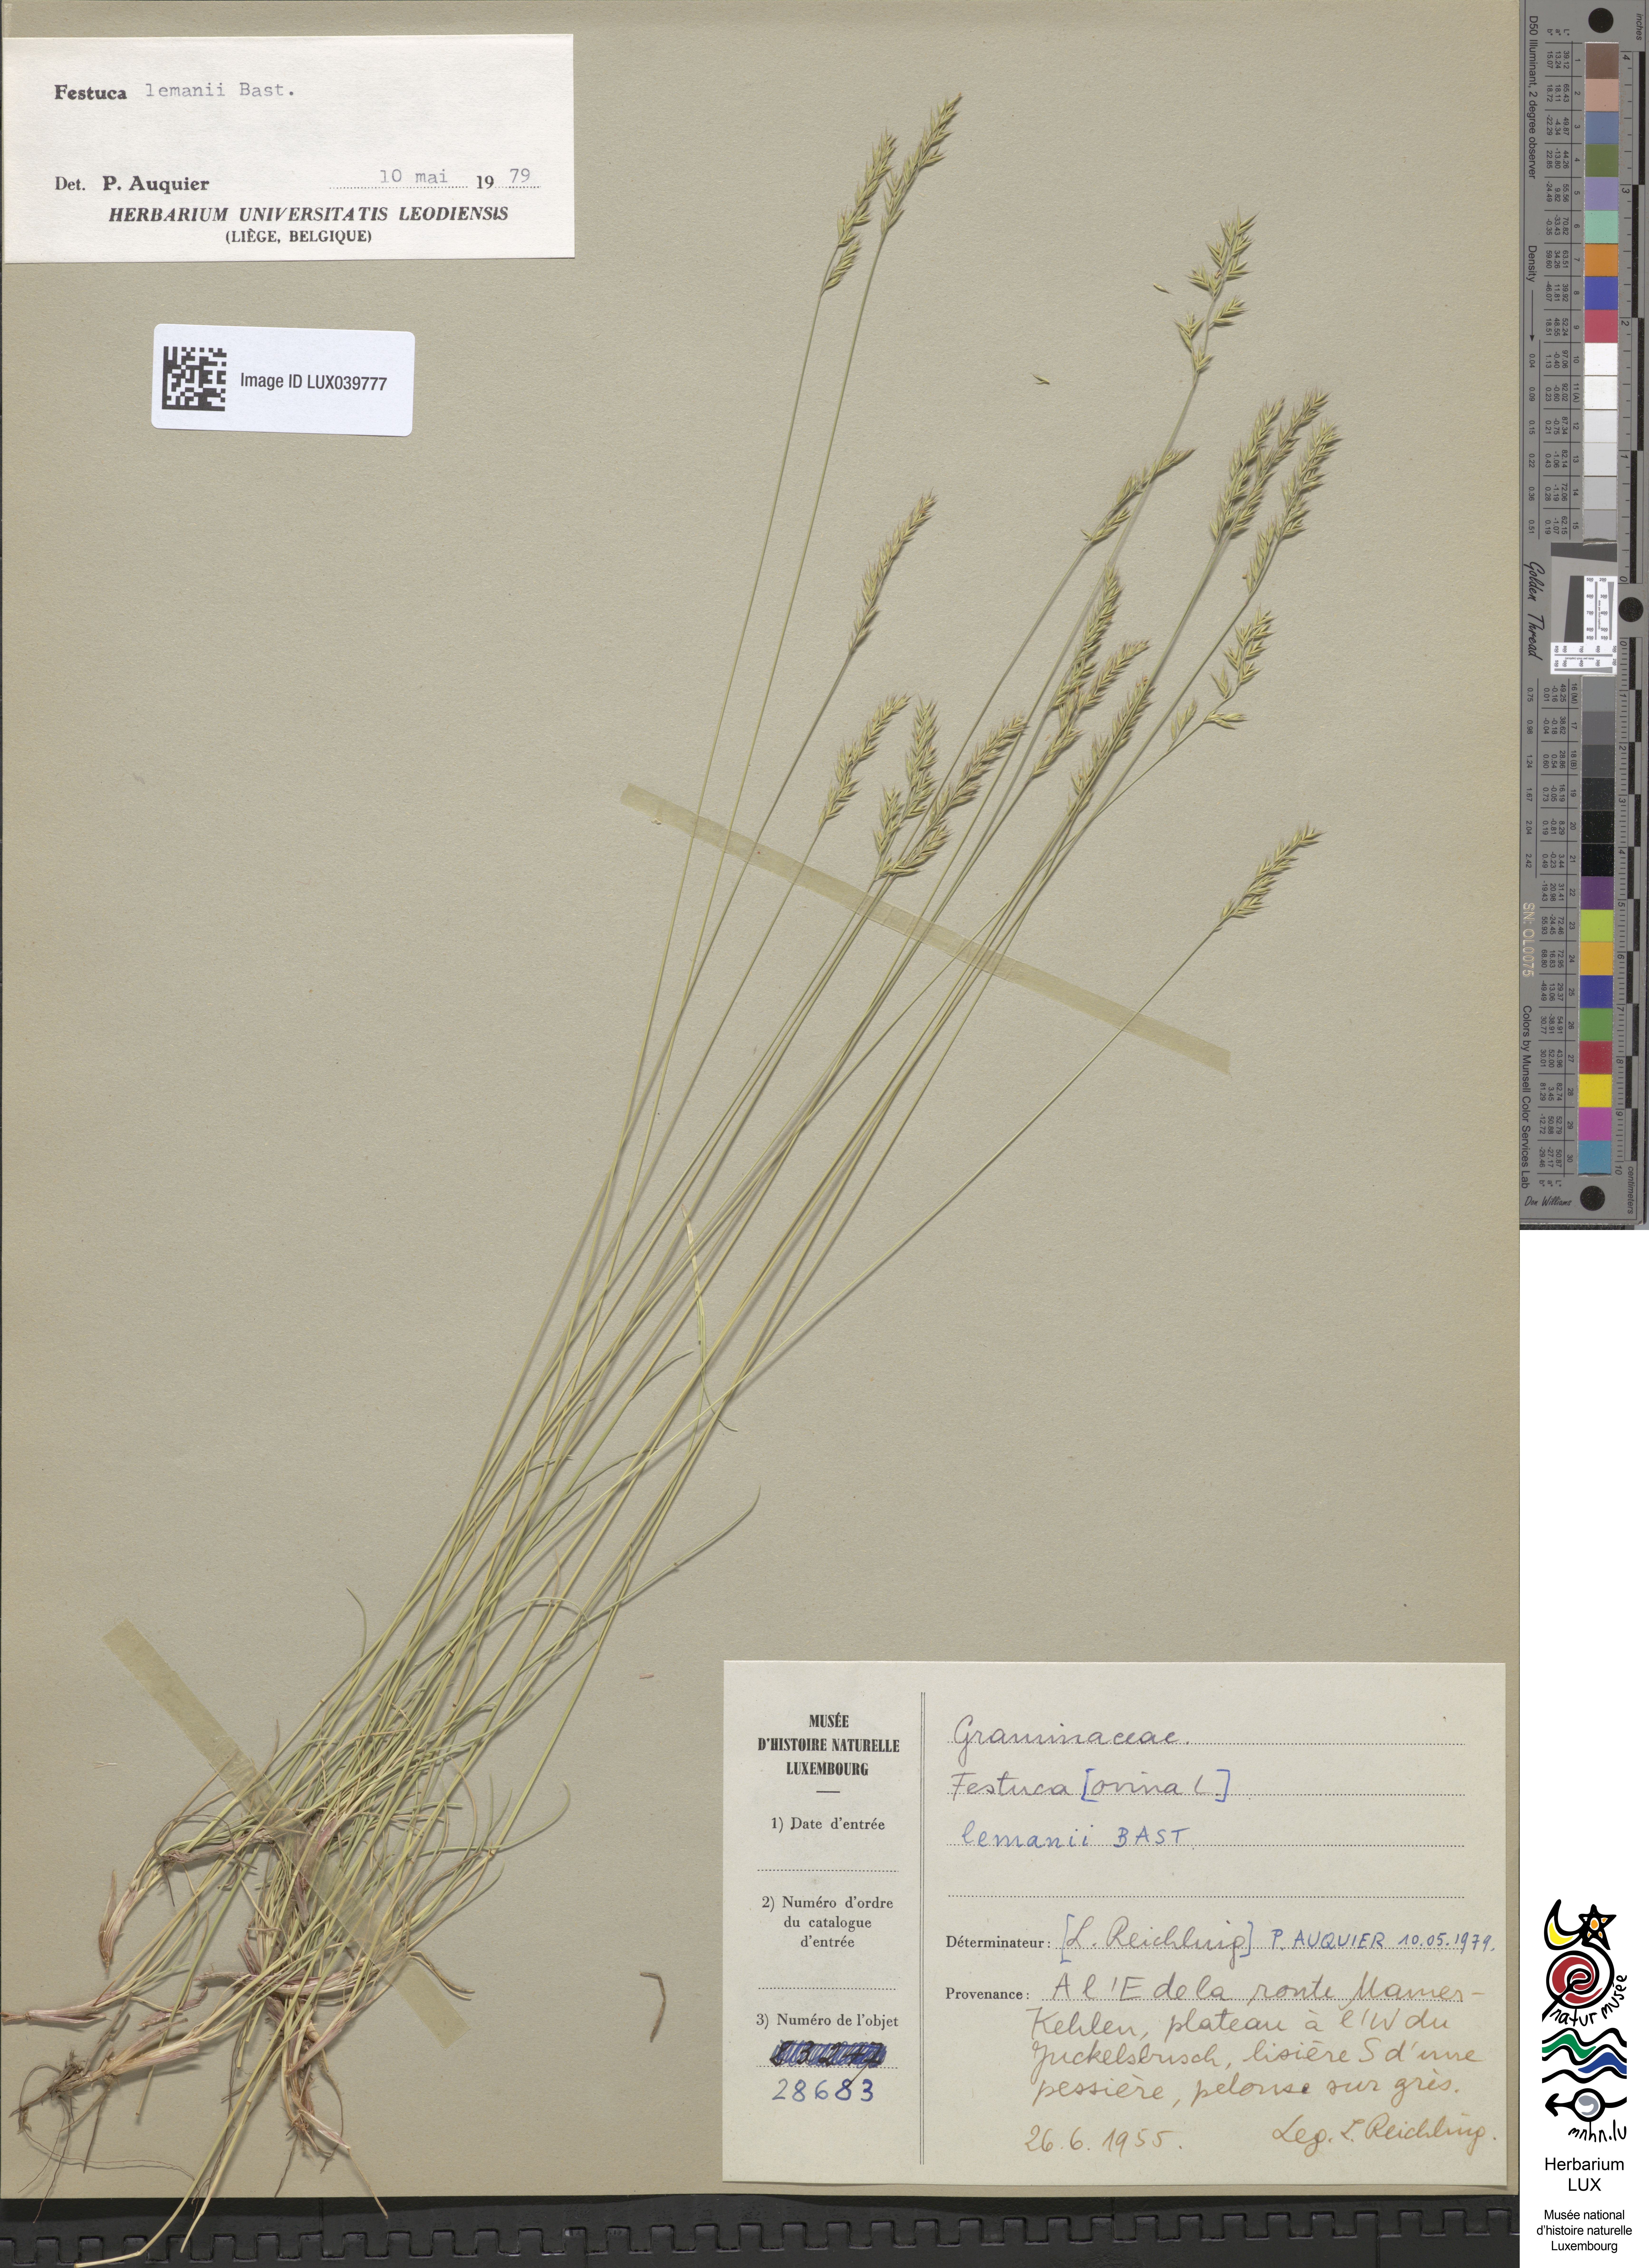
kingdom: Plantae
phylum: Tracheophyta
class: Liliopsida
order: Poales
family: Poaceae
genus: Festuca
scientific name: Festuca lemanii
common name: Confused fescue
